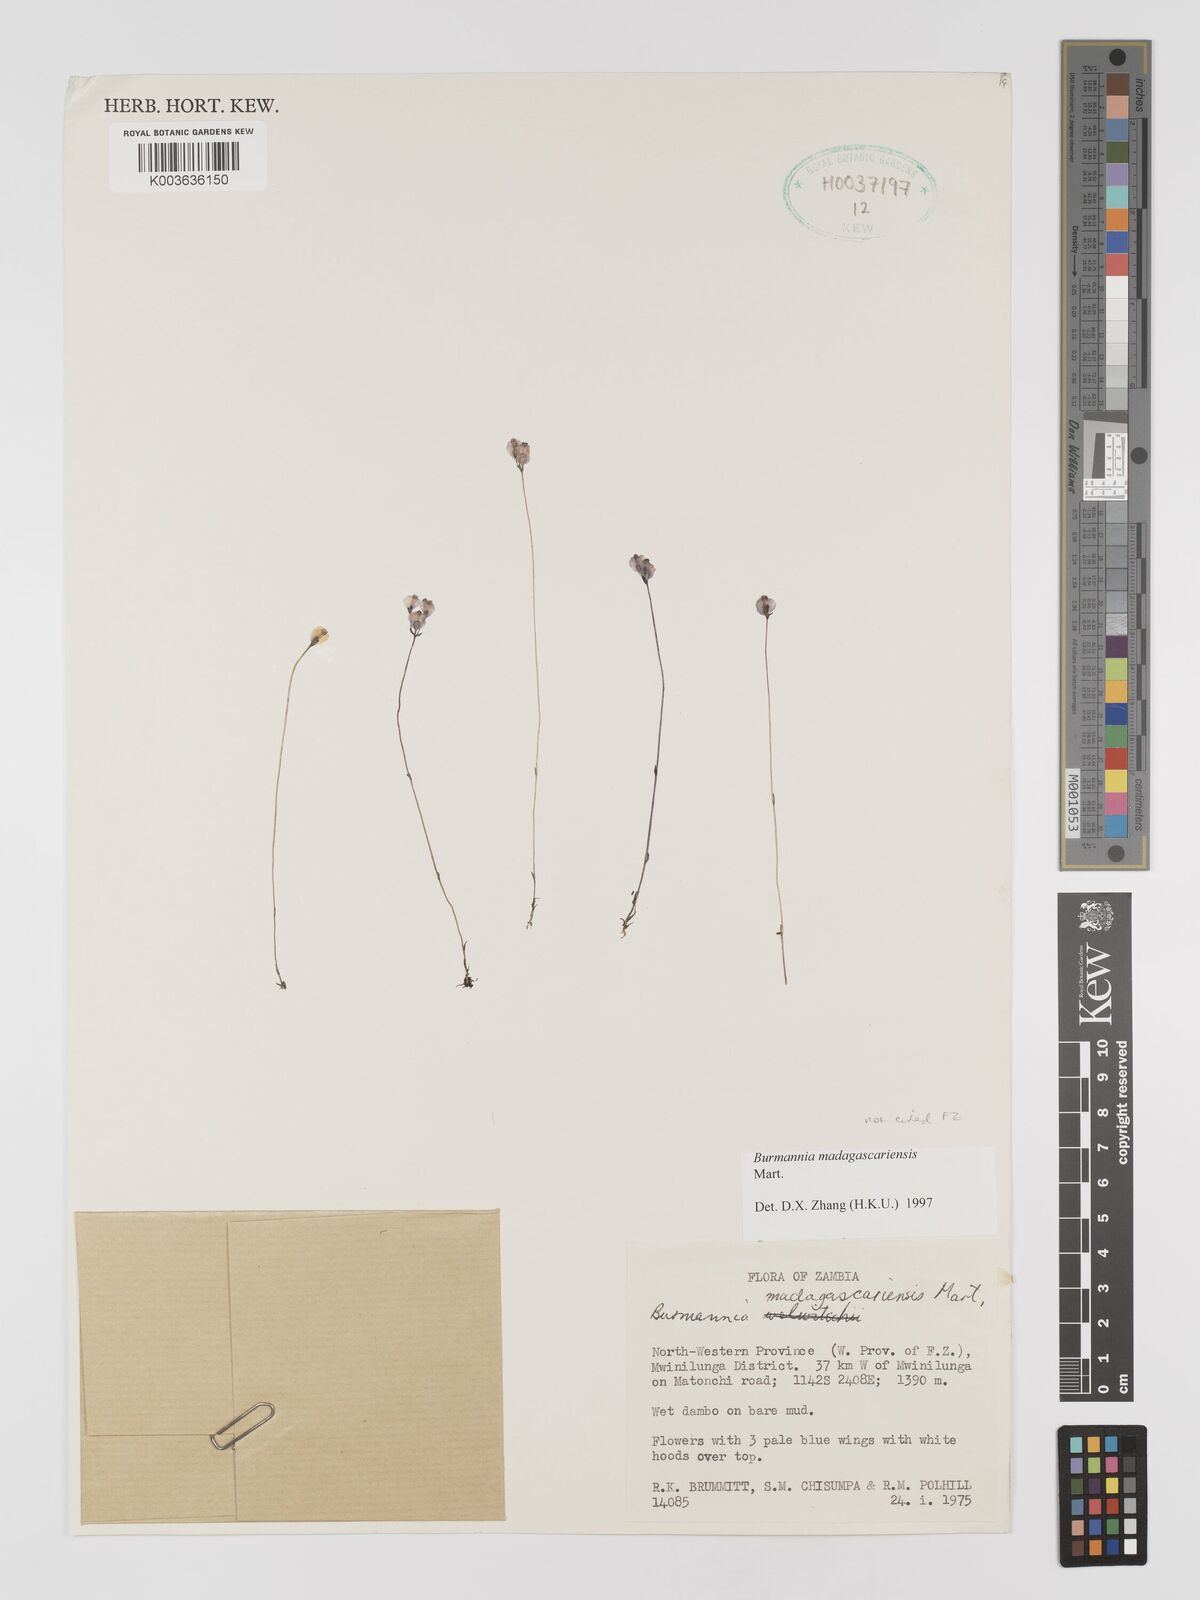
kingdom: Plantae
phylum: Tracheophyta
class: Liliopsida
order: Dioscoreales
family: Burmanniaceae
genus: Burmannia
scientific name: Burmannia madagascariensis
